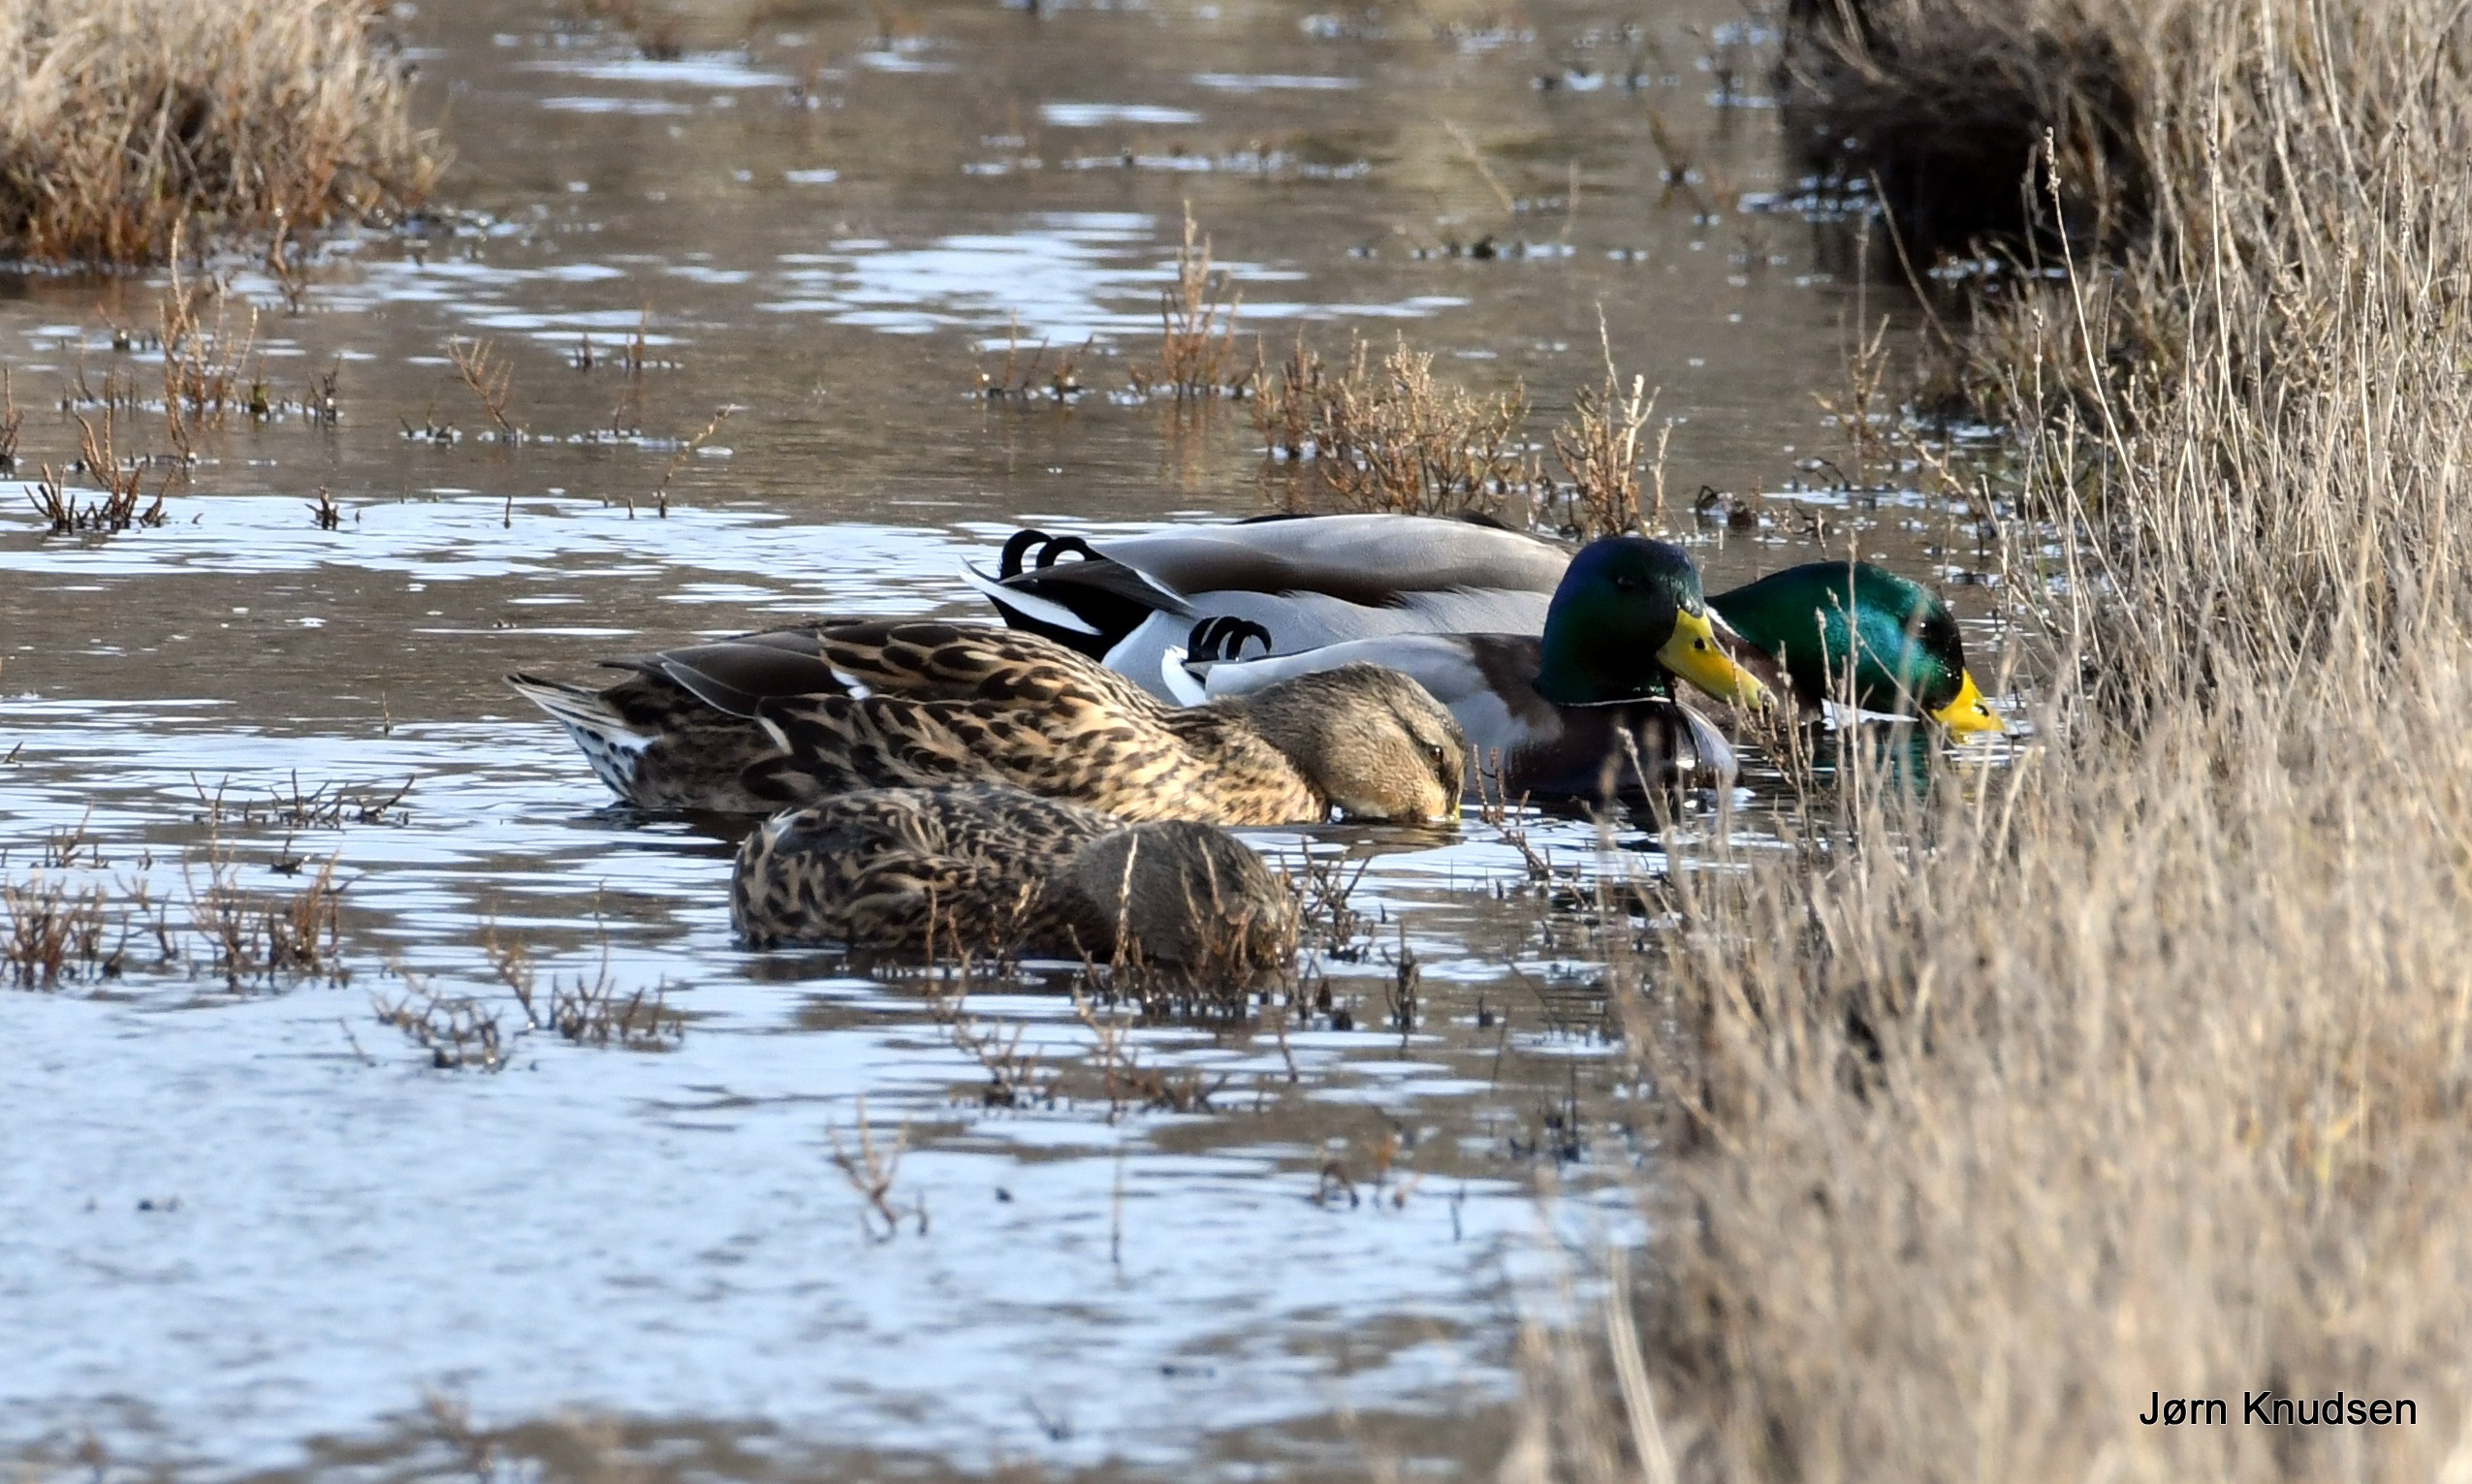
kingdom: Animalia
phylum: Chordata
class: Aves
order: Anseriformes
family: Anatidae
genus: Anas
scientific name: Anas platyrhynchos
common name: Gråand
